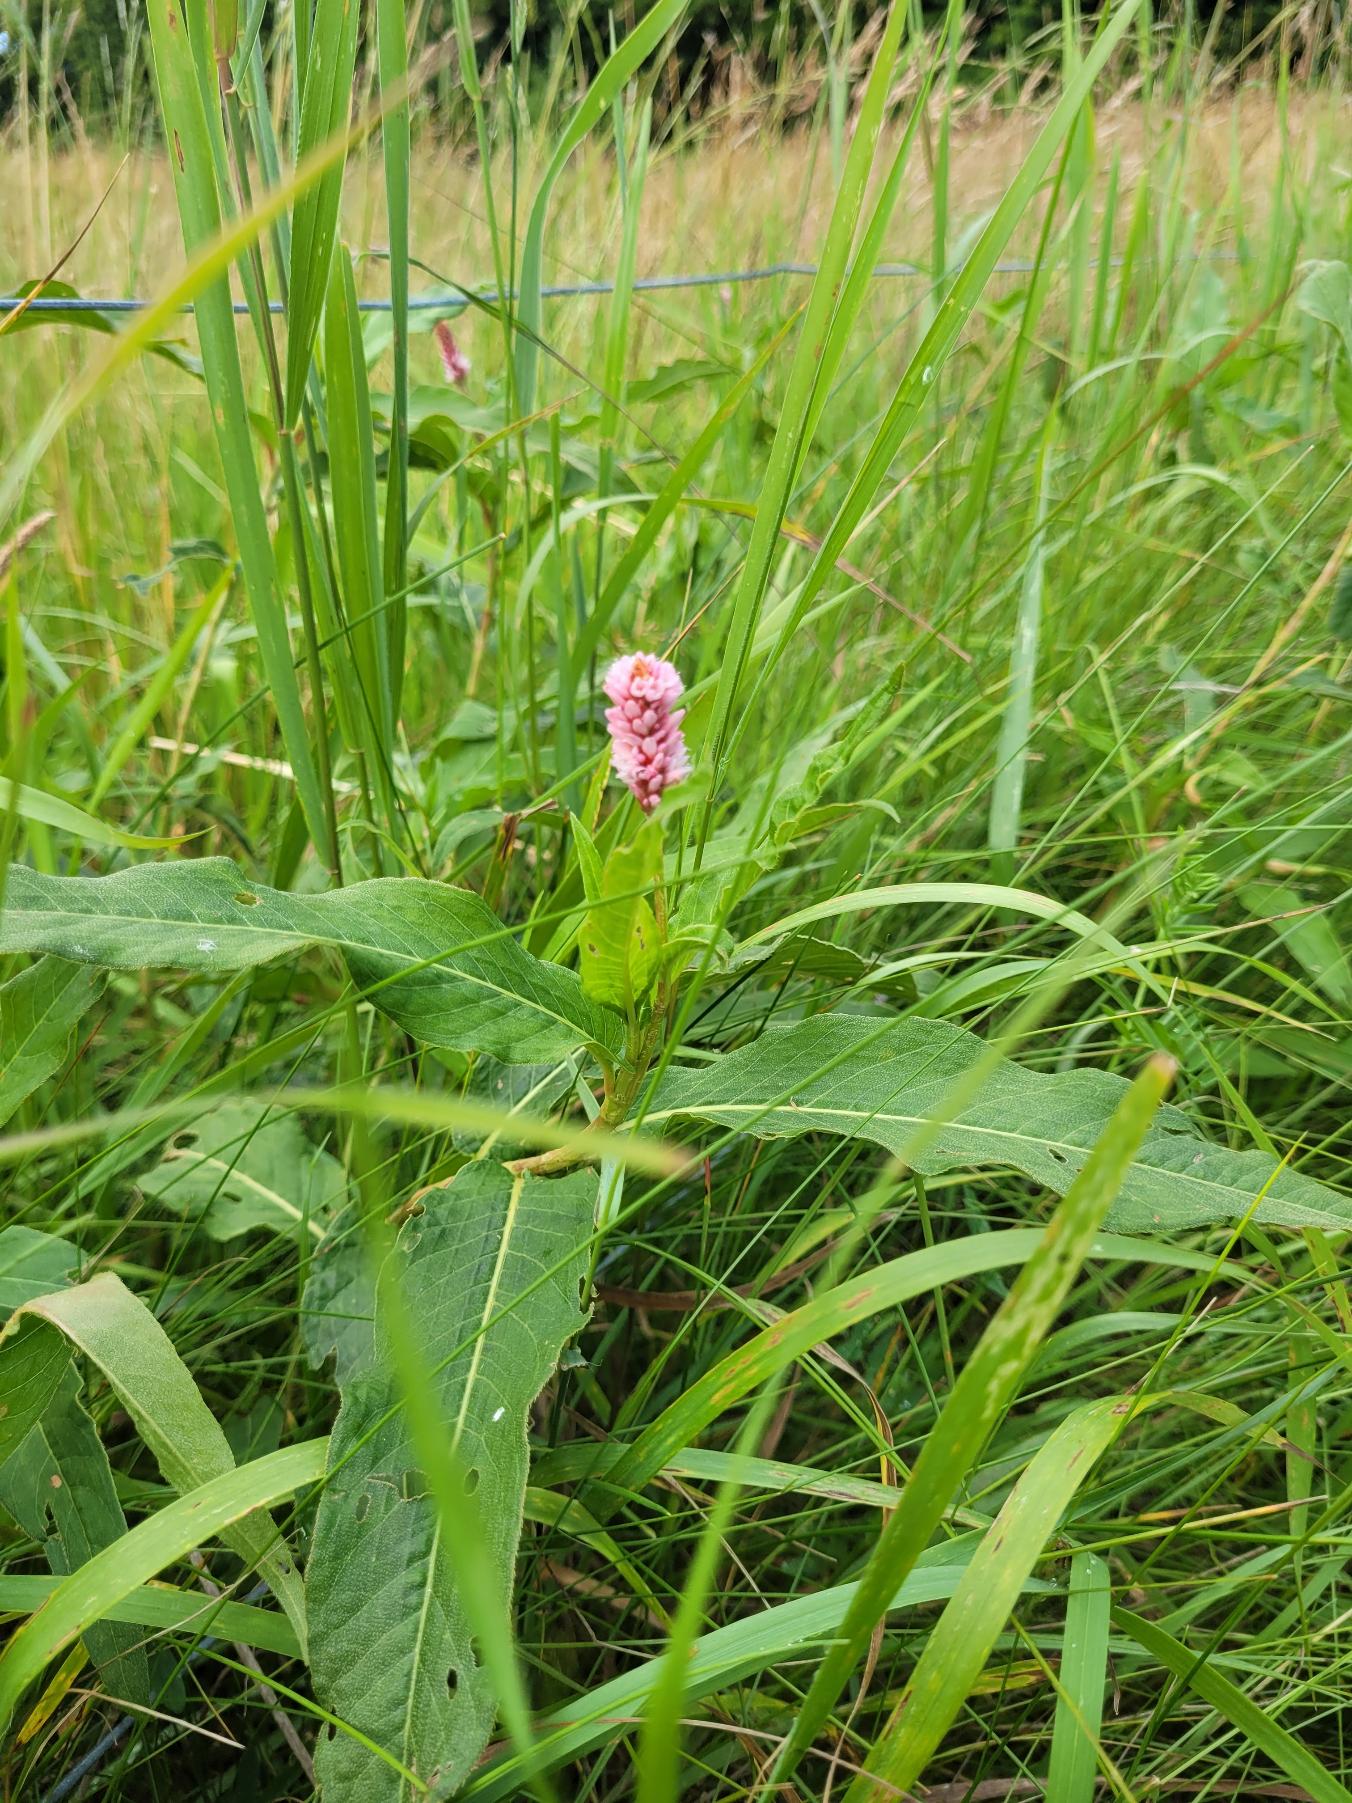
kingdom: Plantae
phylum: Tracheophyta
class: Magnoliopsida
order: Caryophyllales
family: Polygonaceae
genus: Persicaria
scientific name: Persicaria amphibia
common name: Vand-pileurt
